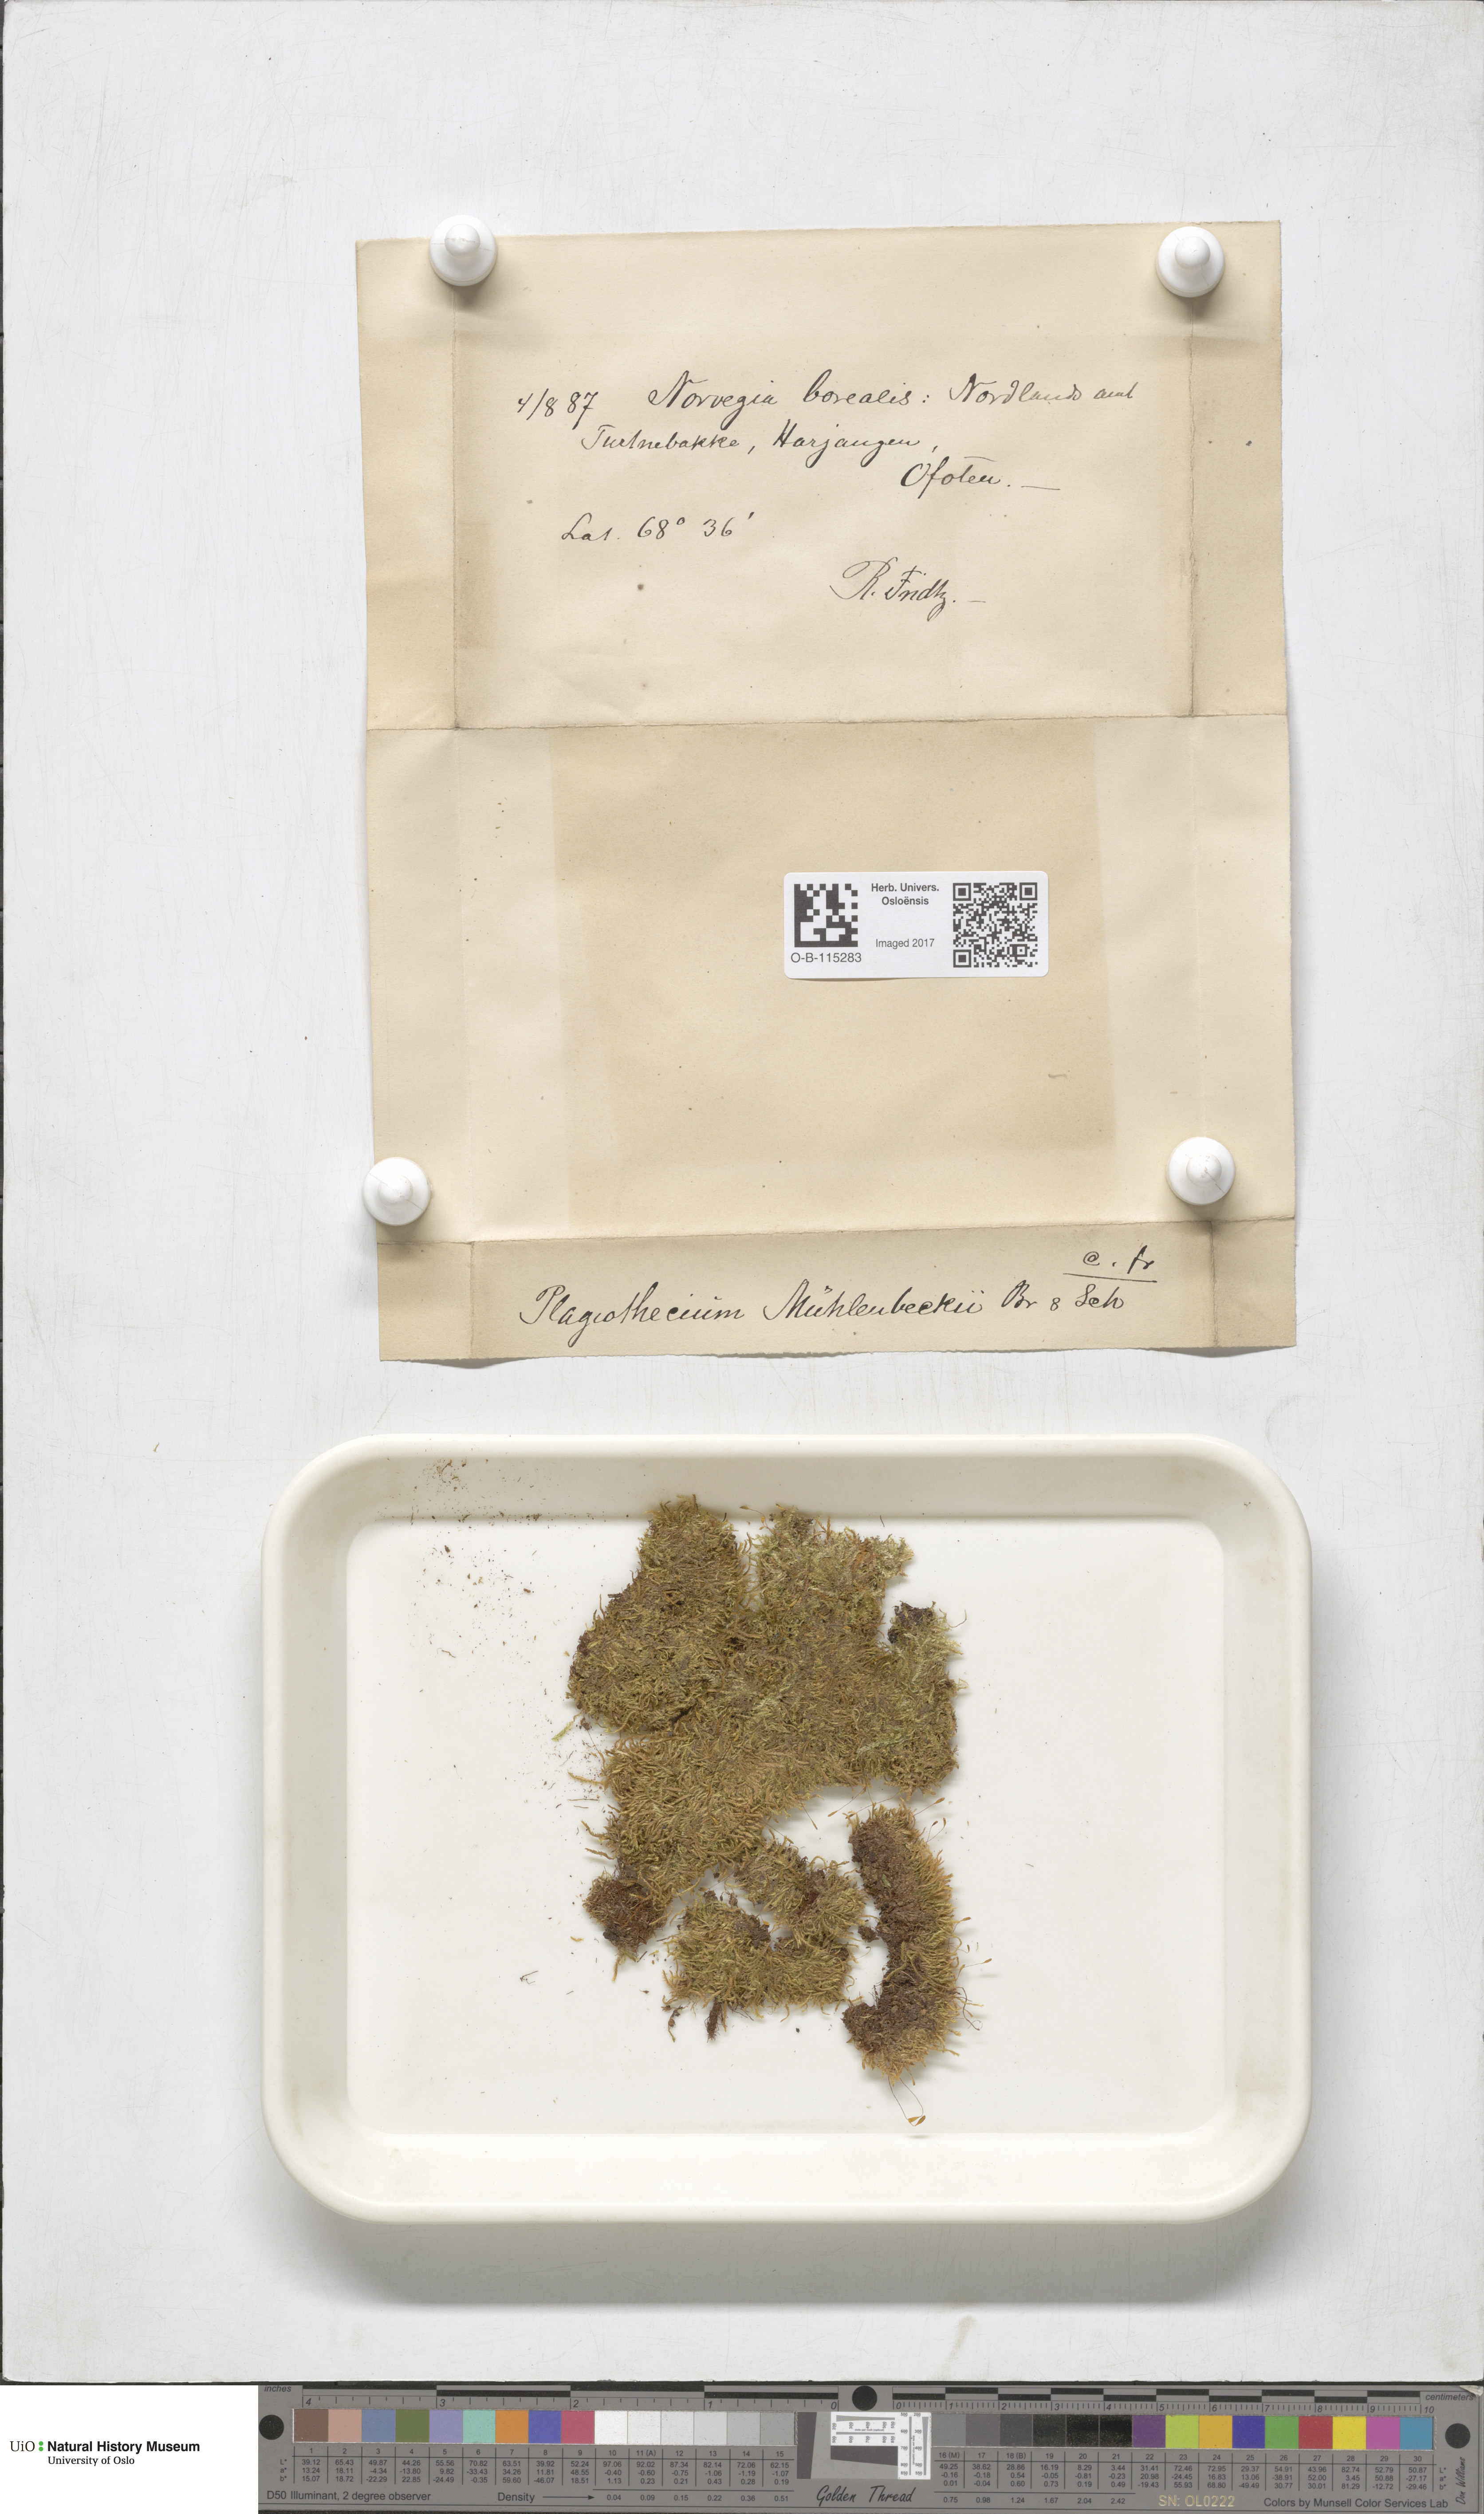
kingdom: Plantae
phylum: Bryophyta
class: Bryopsida
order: Hypnales
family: Plagiotheciaceae
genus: Herzogiella
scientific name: Herzogiella striatella
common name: Muhlenbeck's feather-moss
